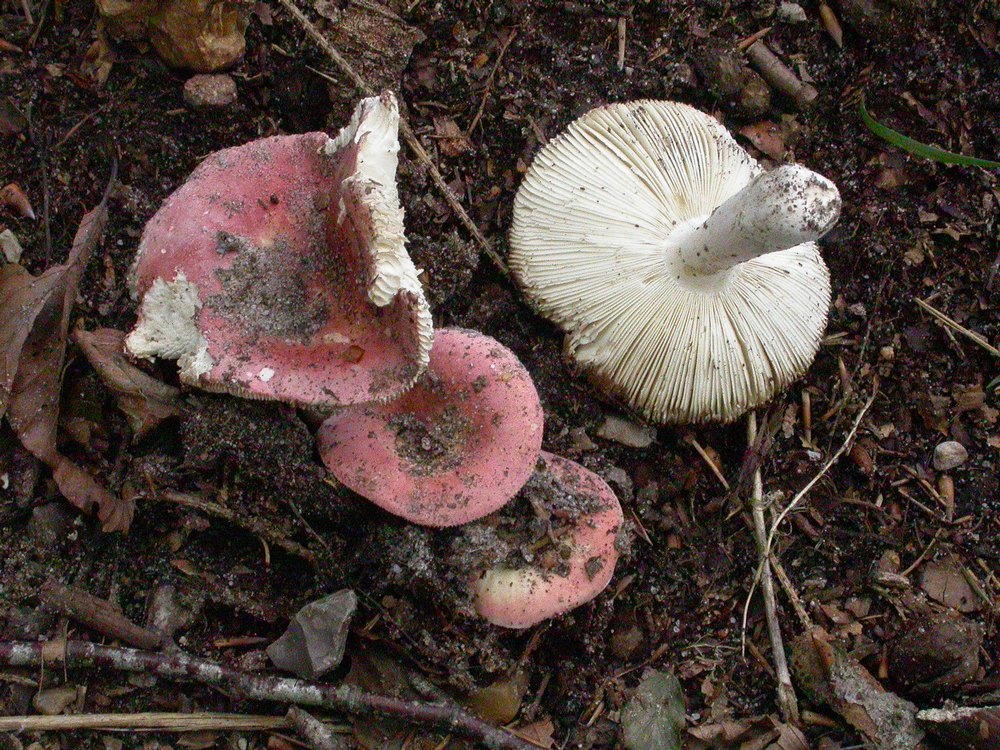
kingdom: Fungi
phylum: Basidiomycota
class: Agaricomycetes
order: Russulales
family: Russulaceae
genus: Russula
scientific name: Russula aurora
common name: rosa skørhat
